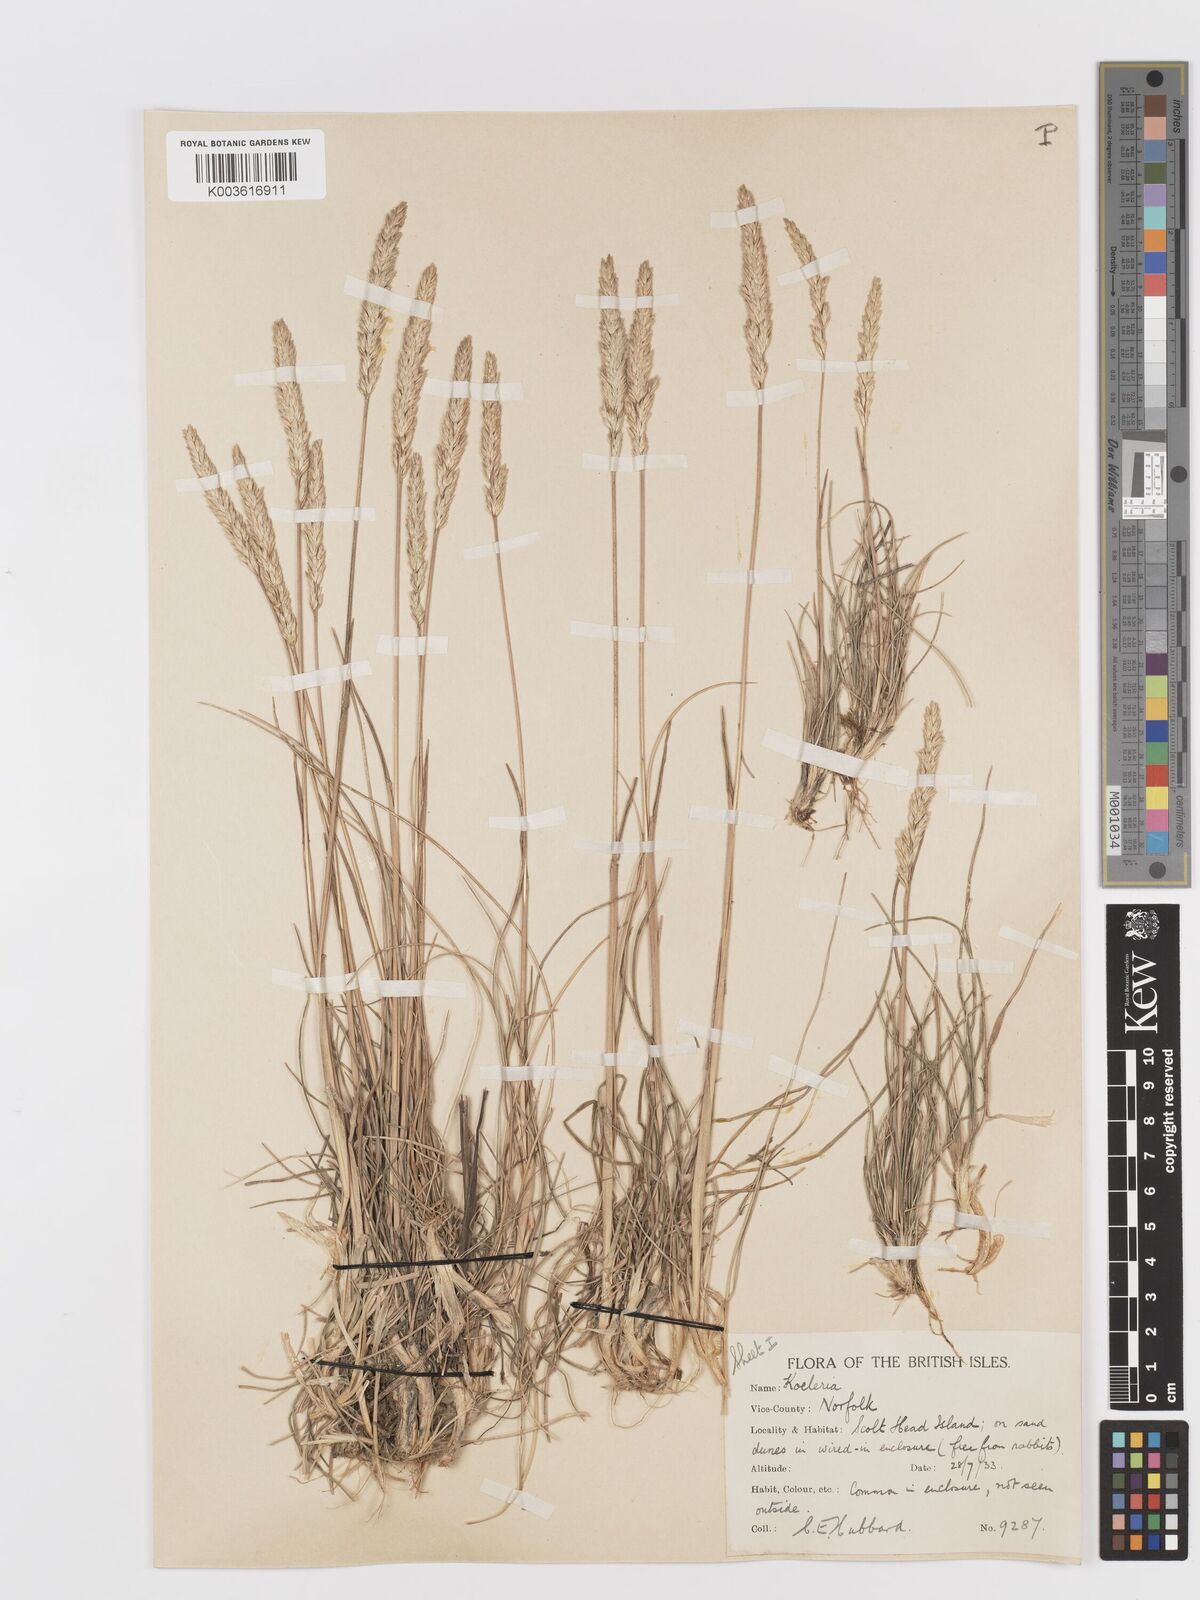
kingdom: Plantae
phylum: Tracheophyta
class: Liliopsida
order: Poales
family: Poaceae
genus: Koeleria
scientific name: Koeleria macrantha
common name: Crested hair-grass
